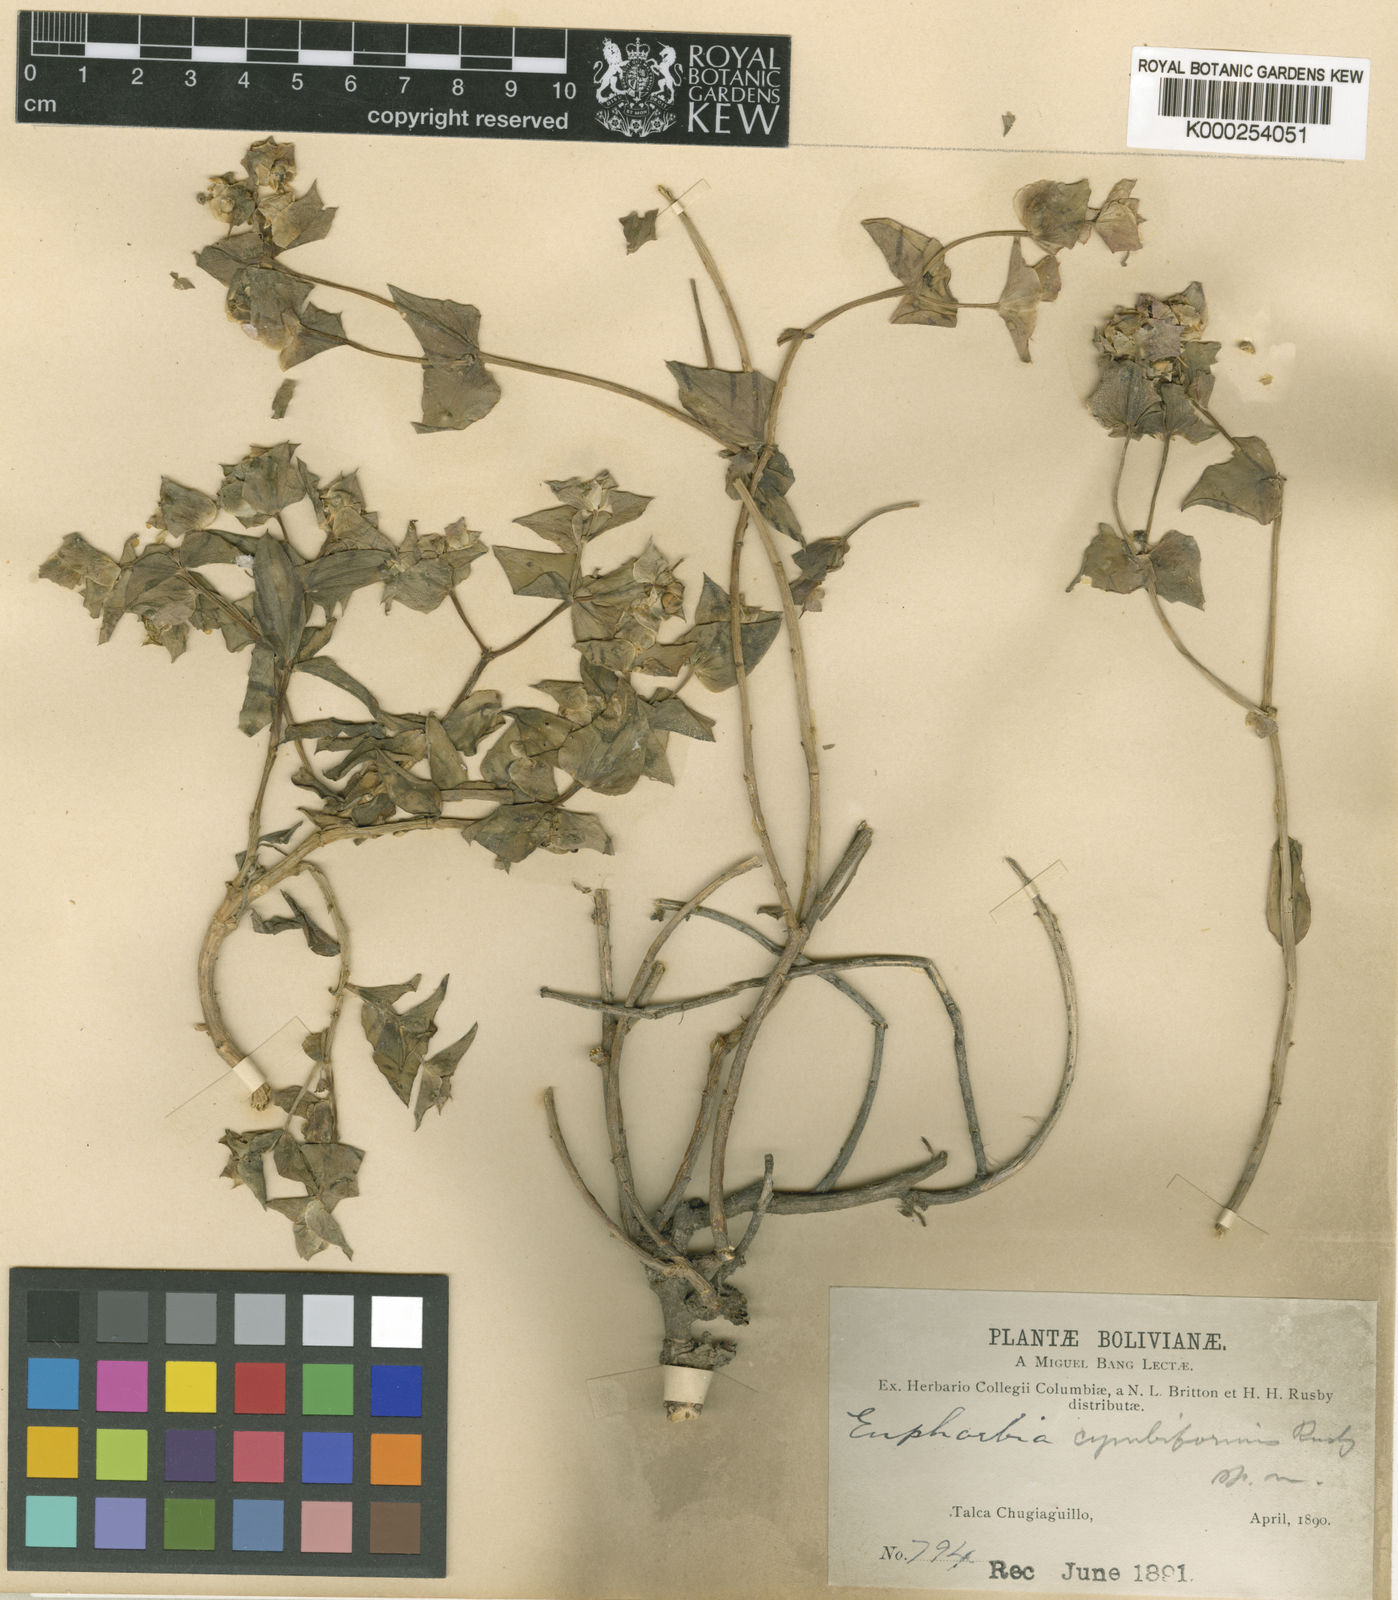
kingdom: Plantae
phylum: Tracheophyta
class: Magnoliopsida
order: Malpighiales
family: Euphorbiaceae
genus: Euphorbia
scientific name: Euphorbia cymbiformis
